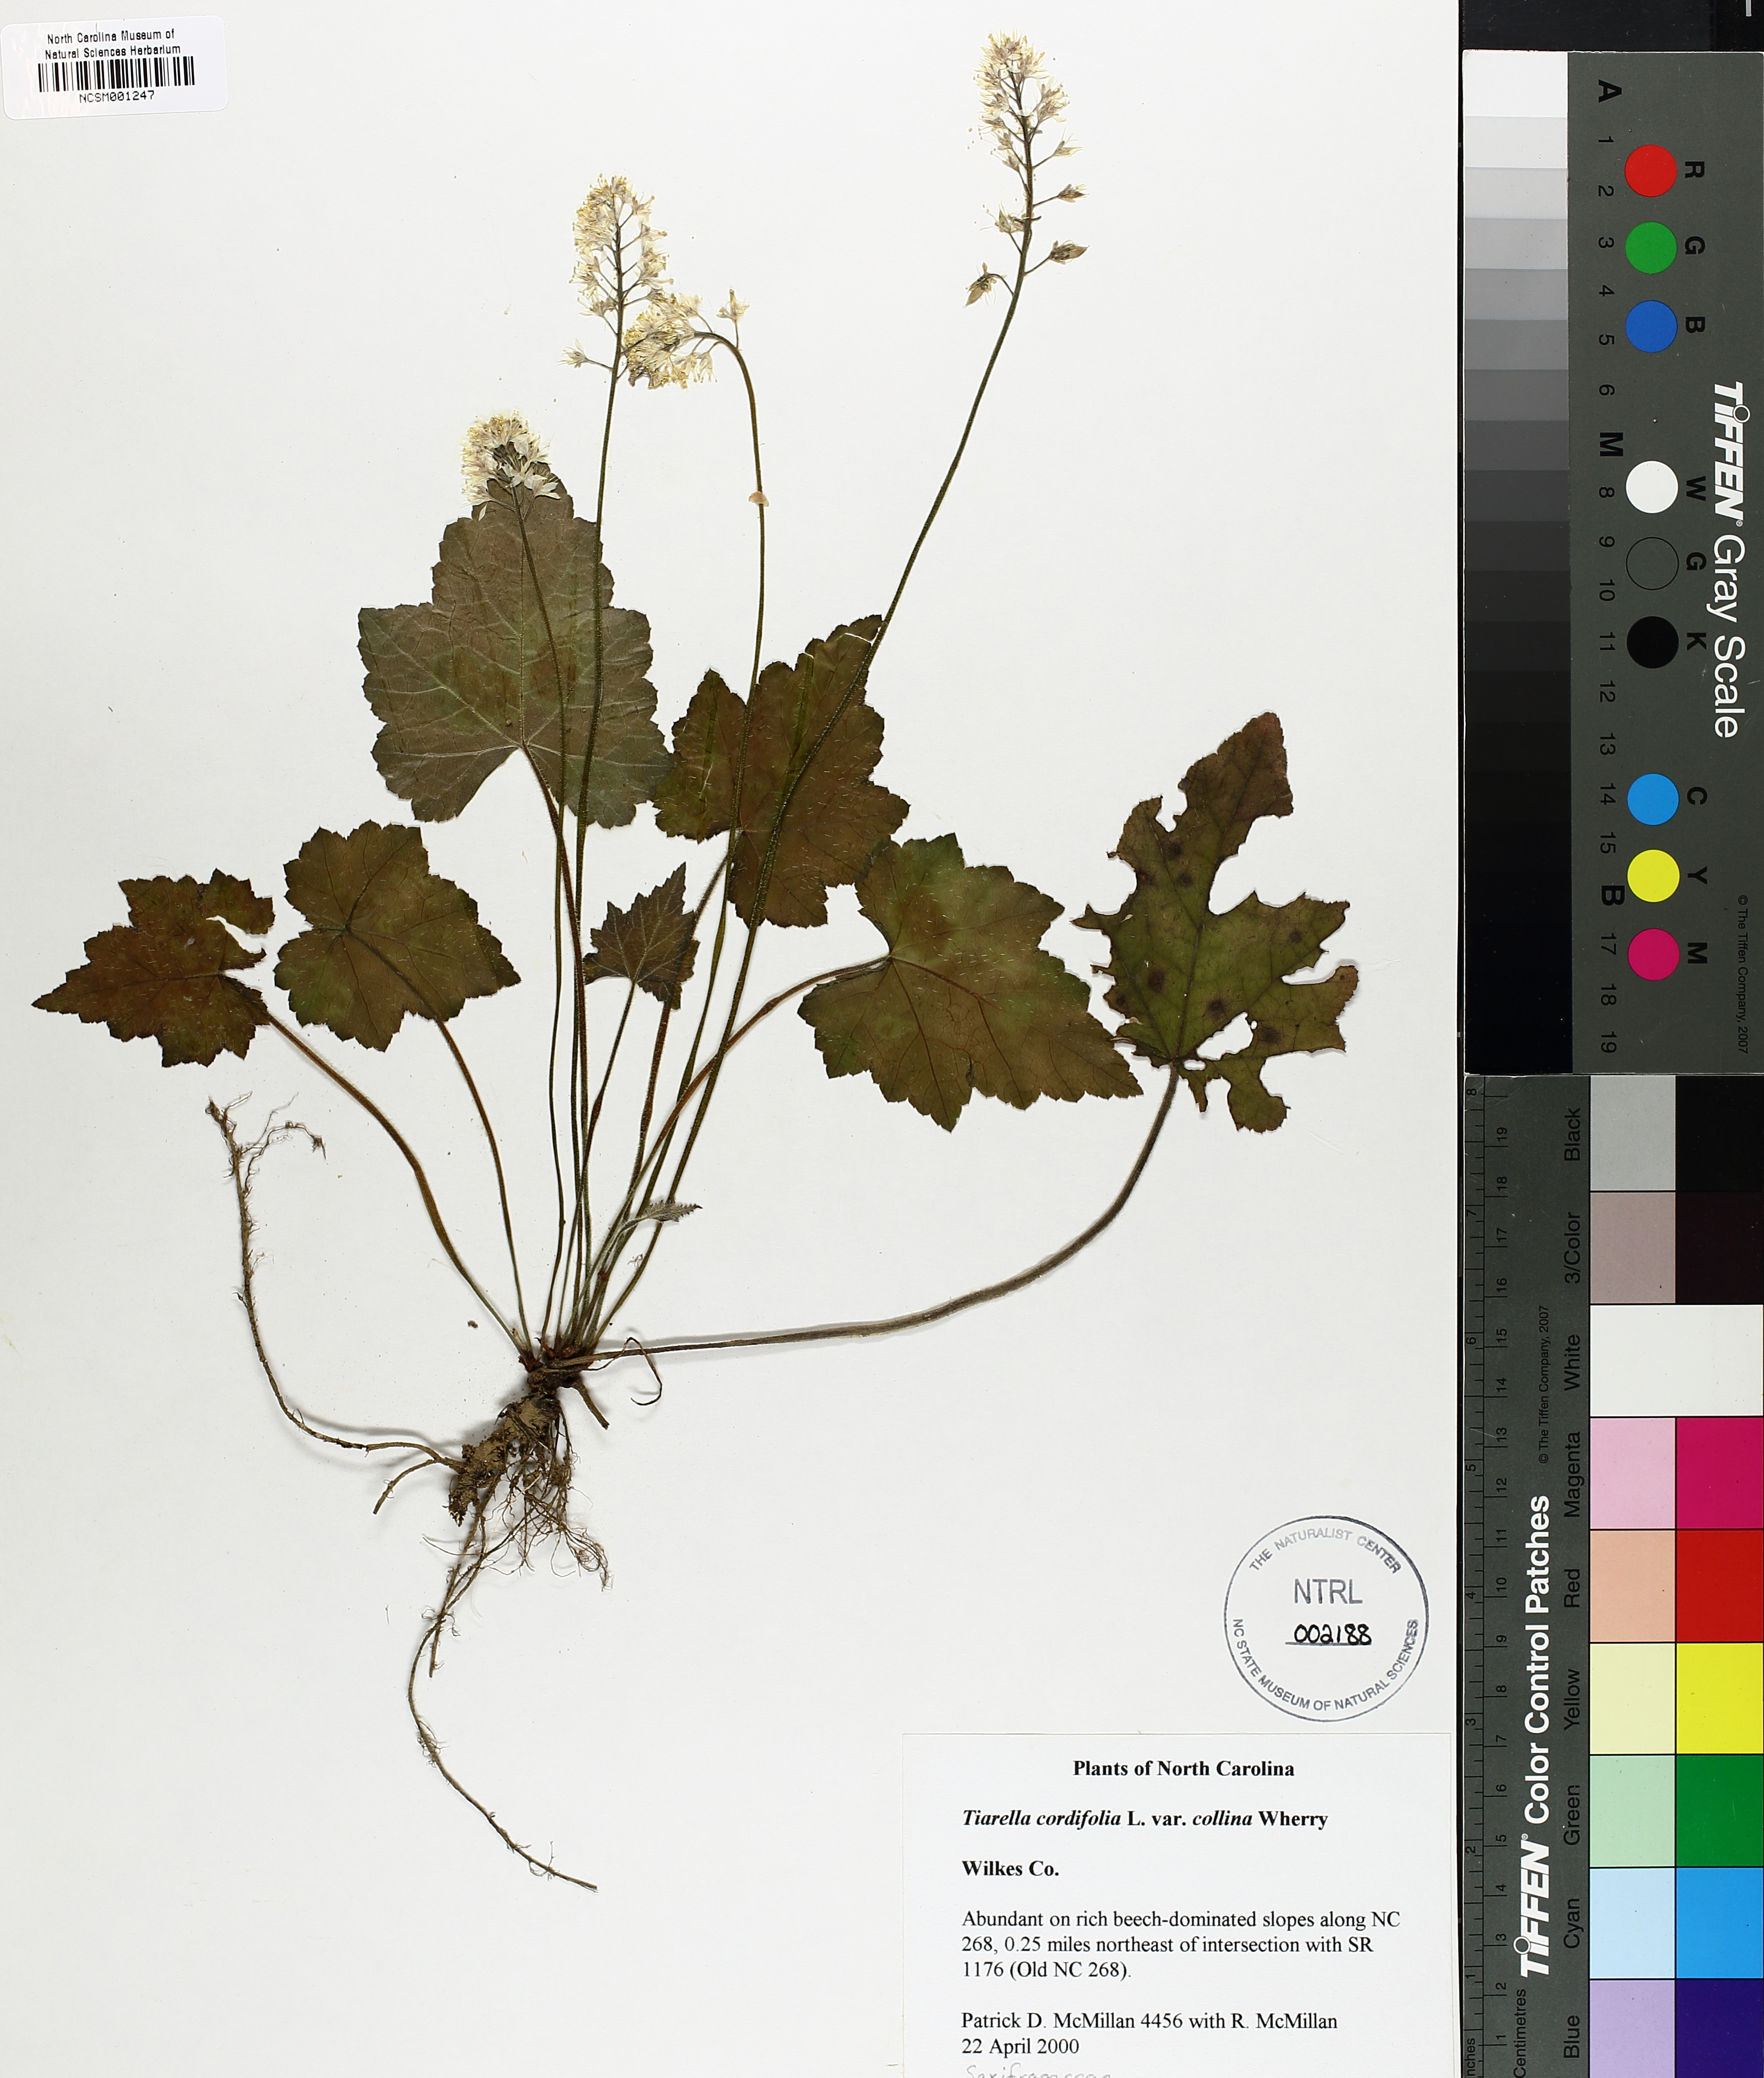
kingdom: Plantae
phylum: Tracheophyta
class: Magnoliopsida
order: Saxifragales
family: Saxifragaceae
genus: Tiarella
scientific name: Tiarella cordifolia
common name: Foamflower
